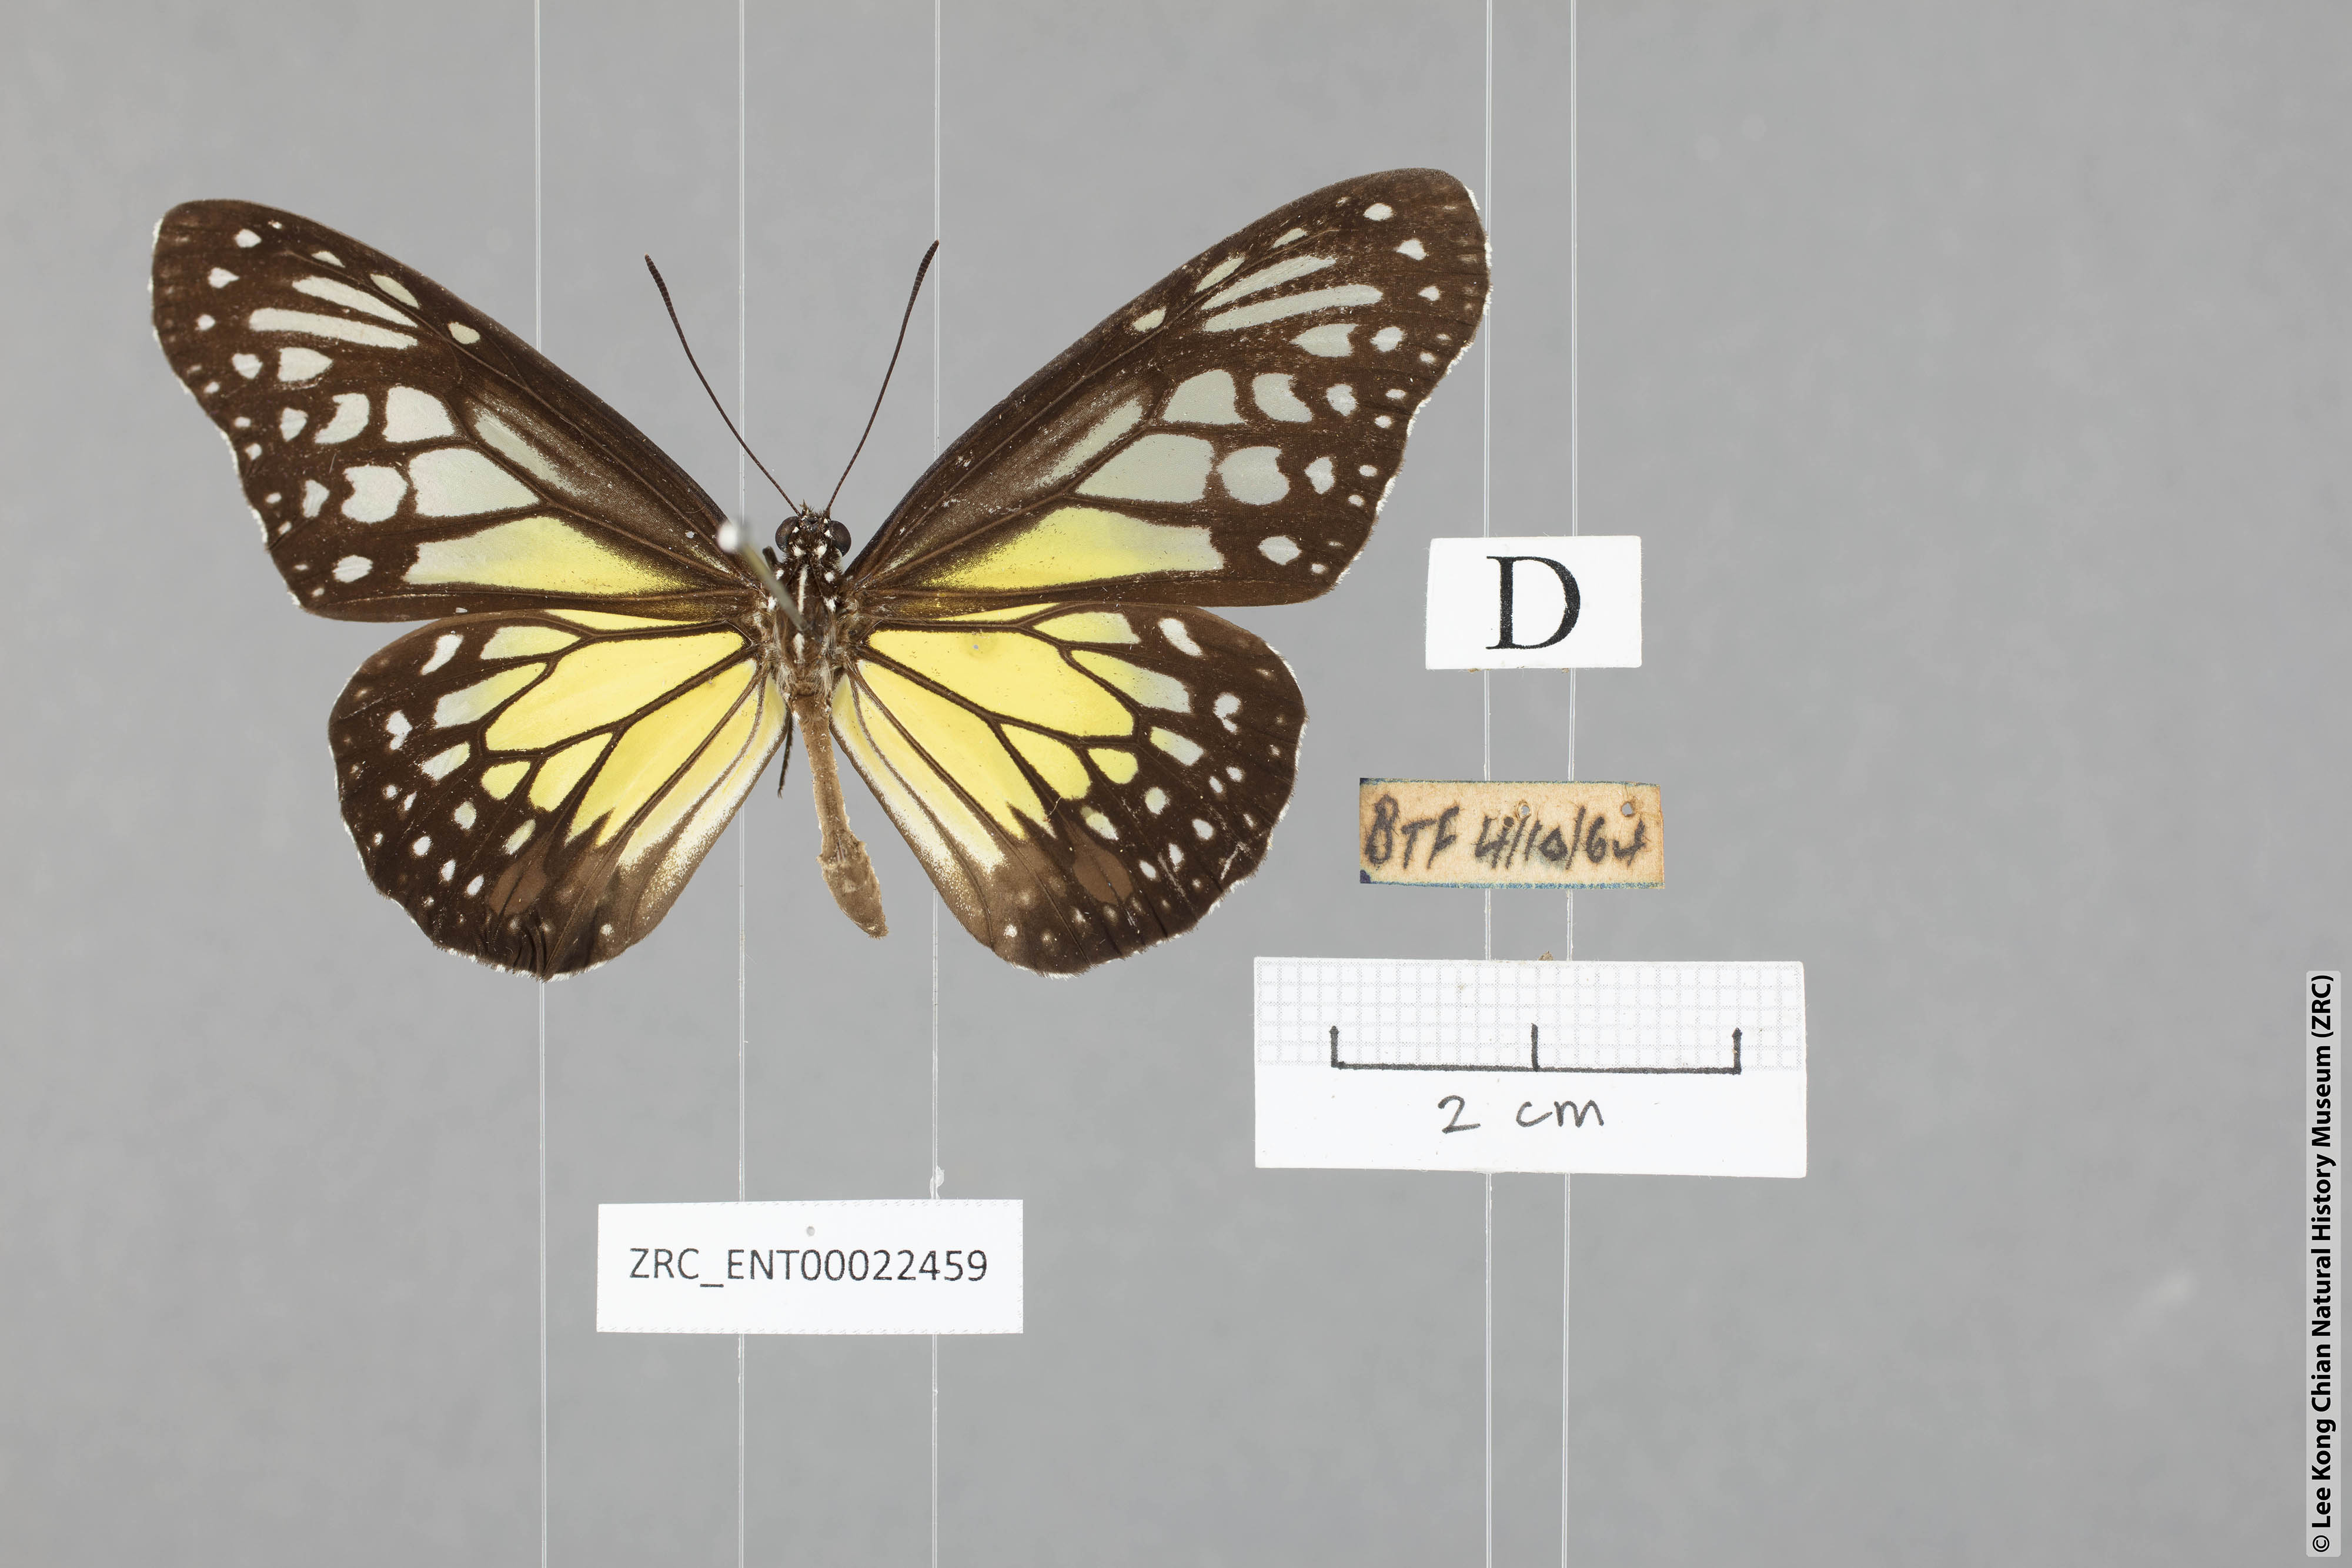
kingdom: Animalia
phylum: Arthropoda
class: Insecta
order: Lepidoptera
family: Nymphalidae
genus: Parantica
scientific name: Parantica aspasia
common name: Yellow glassy tiger
